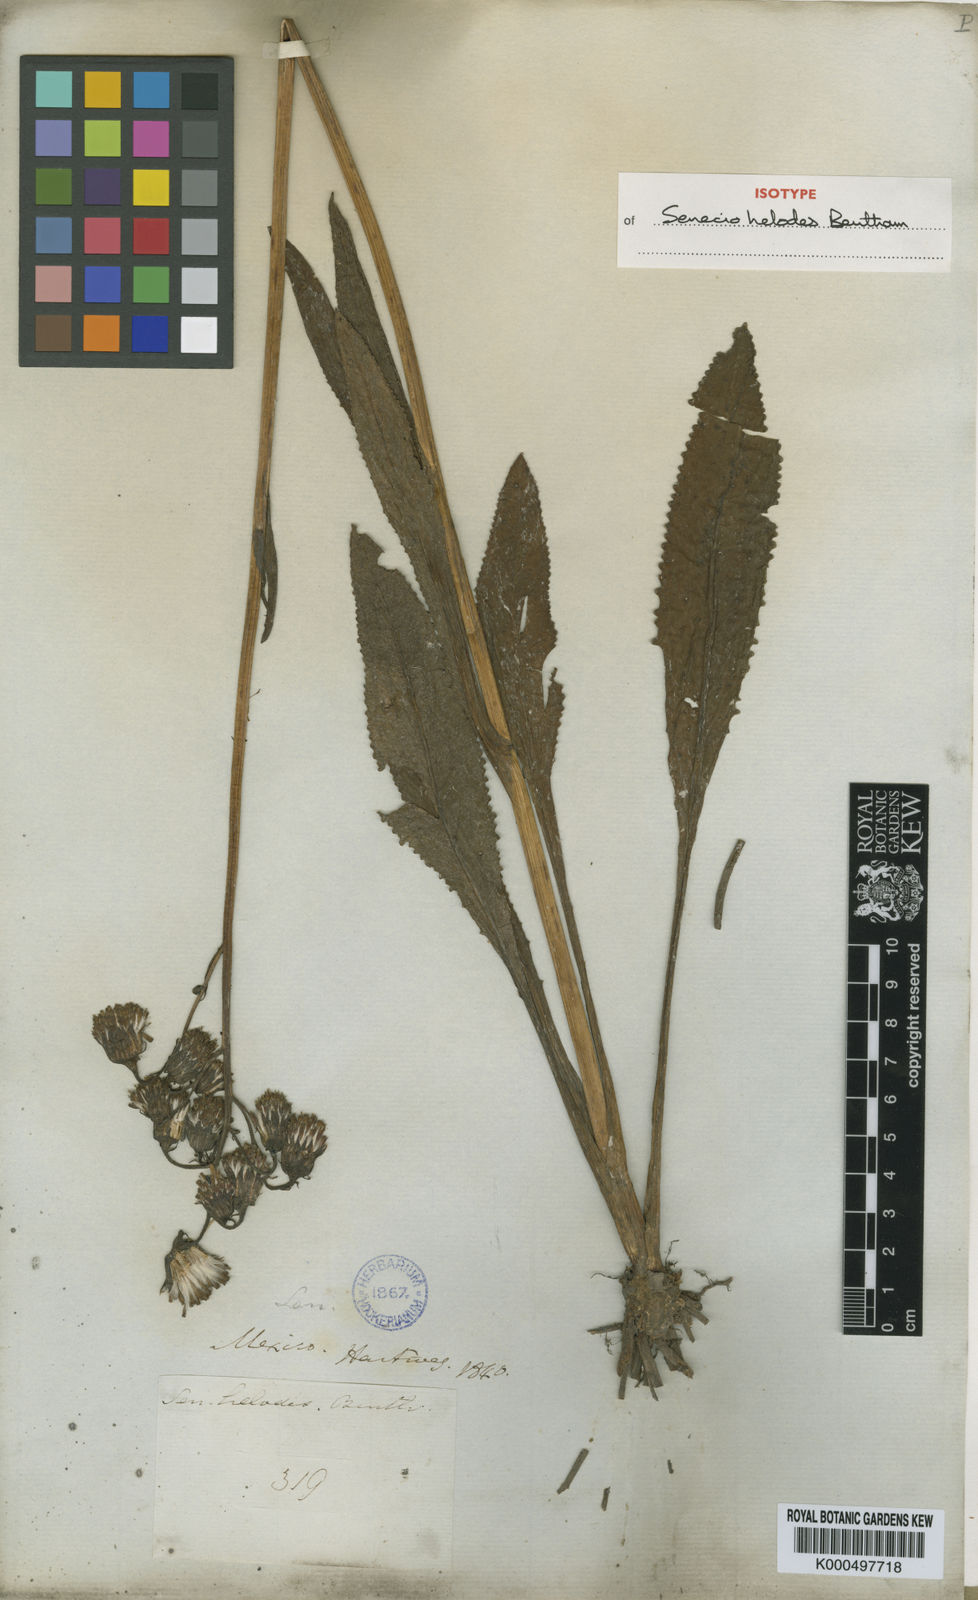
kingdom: Plantae
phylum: Tracheophyta
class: Magnoliopsida
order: Asterales
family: Asteraceae
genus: Packera
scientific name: Packera toluccana
